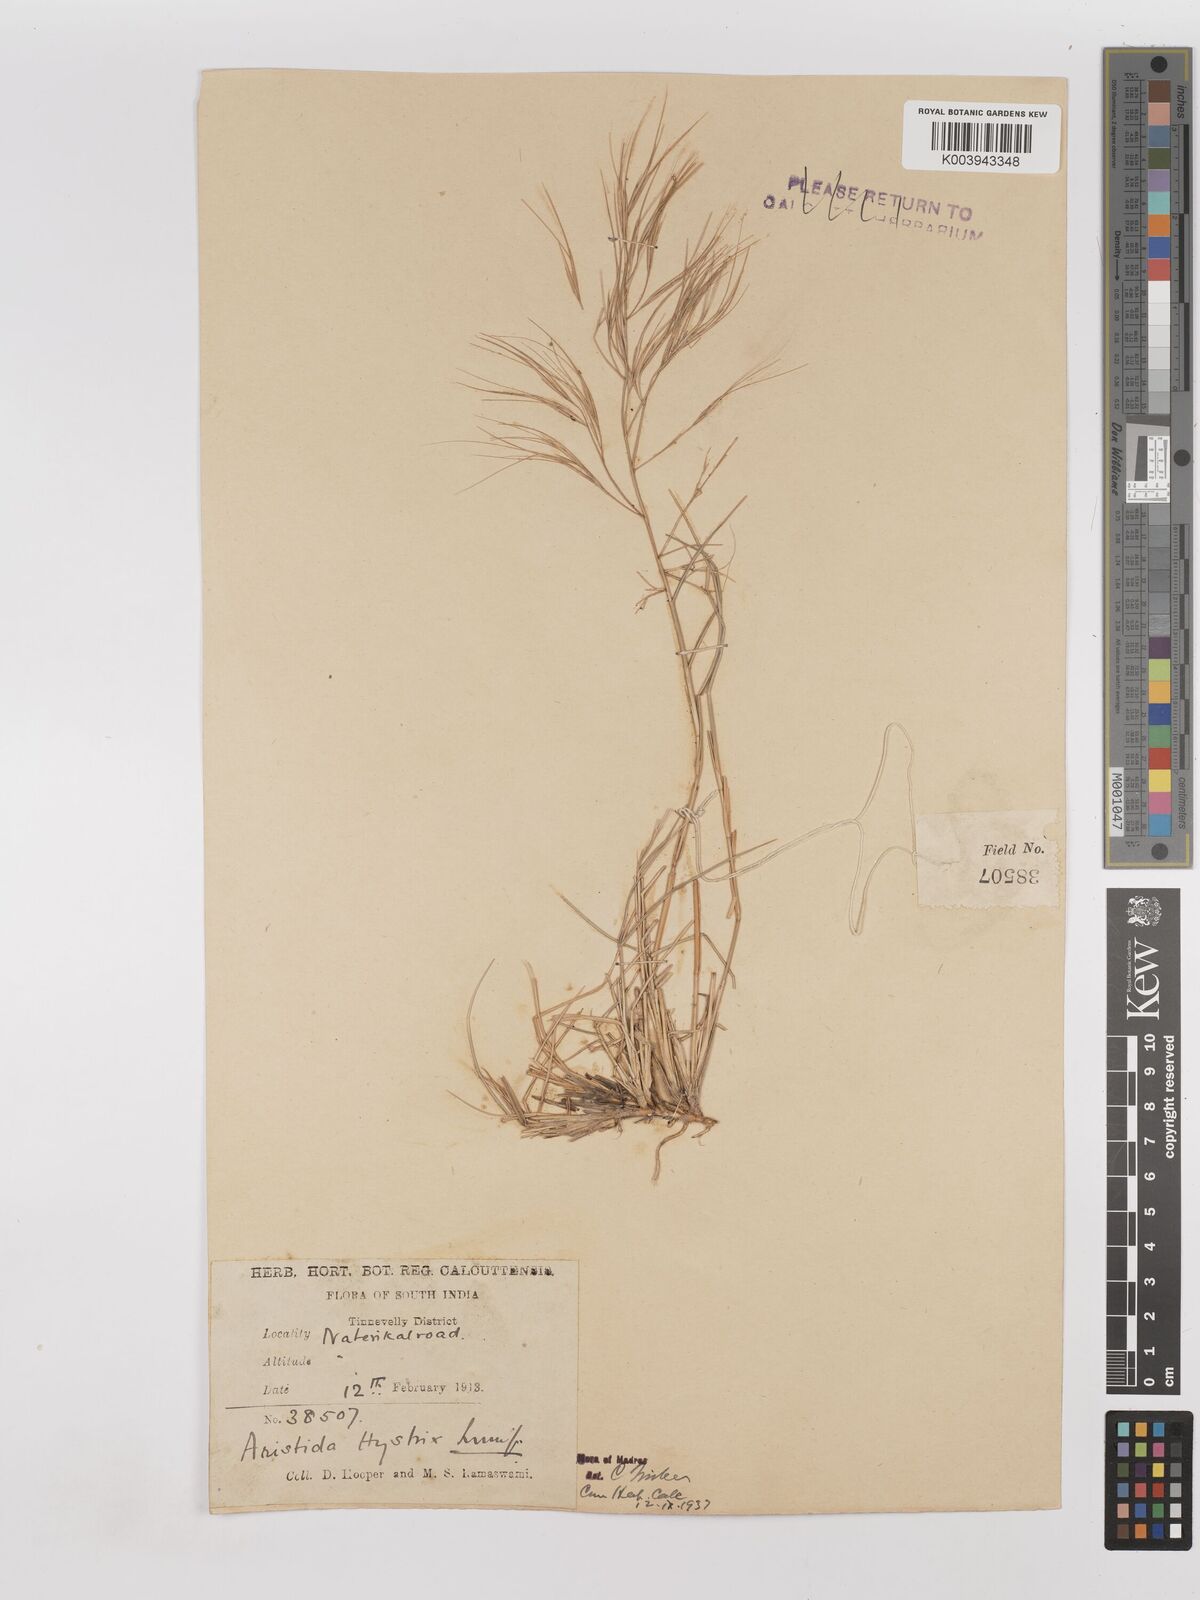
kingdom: Plantae
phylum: Tracheophyta
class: Liliopsida
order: Poales
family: Poaceae
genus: Aristida
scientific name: Aristida hystrix
